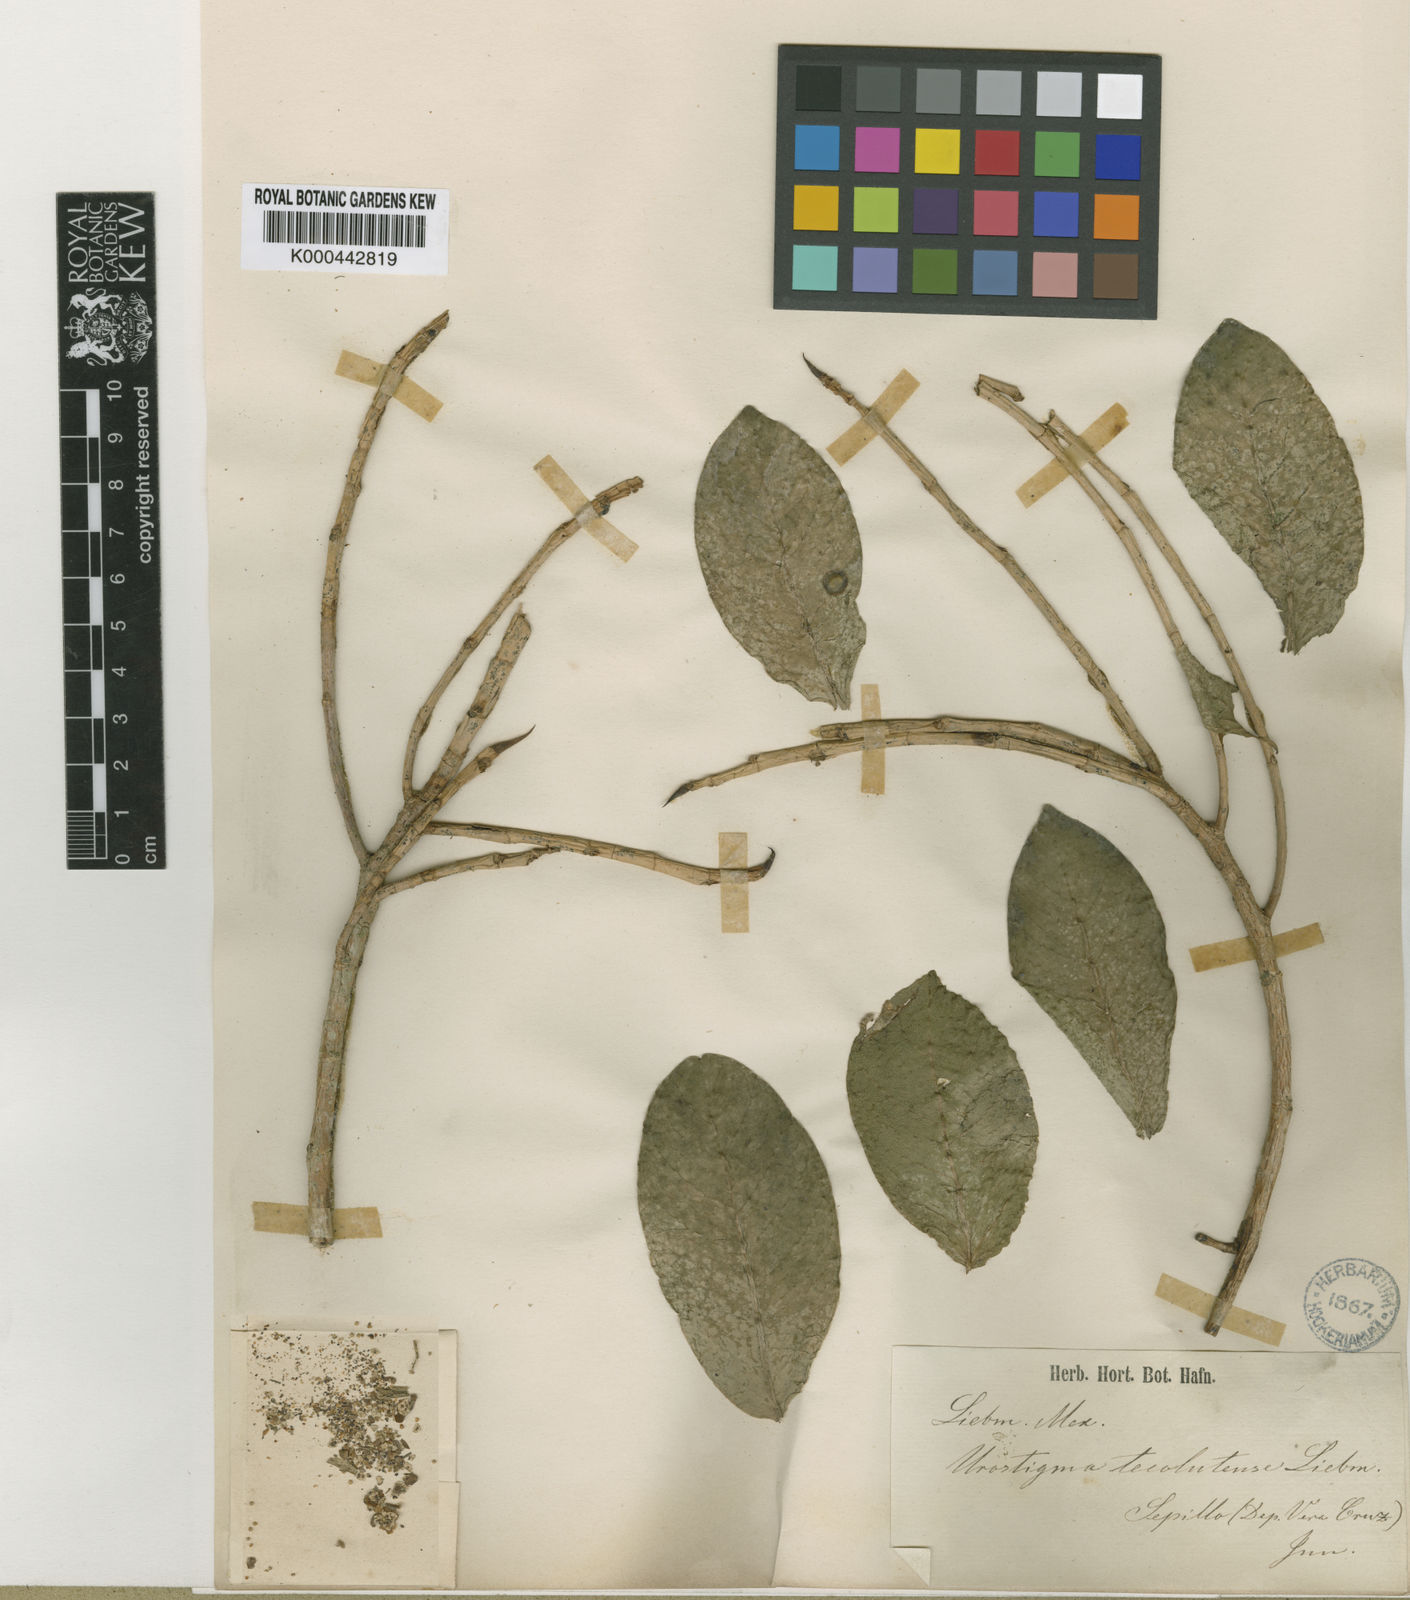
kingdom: Plantae
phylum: Tracheophyta
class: Magnoliopsida
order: Rosales
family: Moraceae
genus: Ficus
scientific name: Ficus tecolutensis
